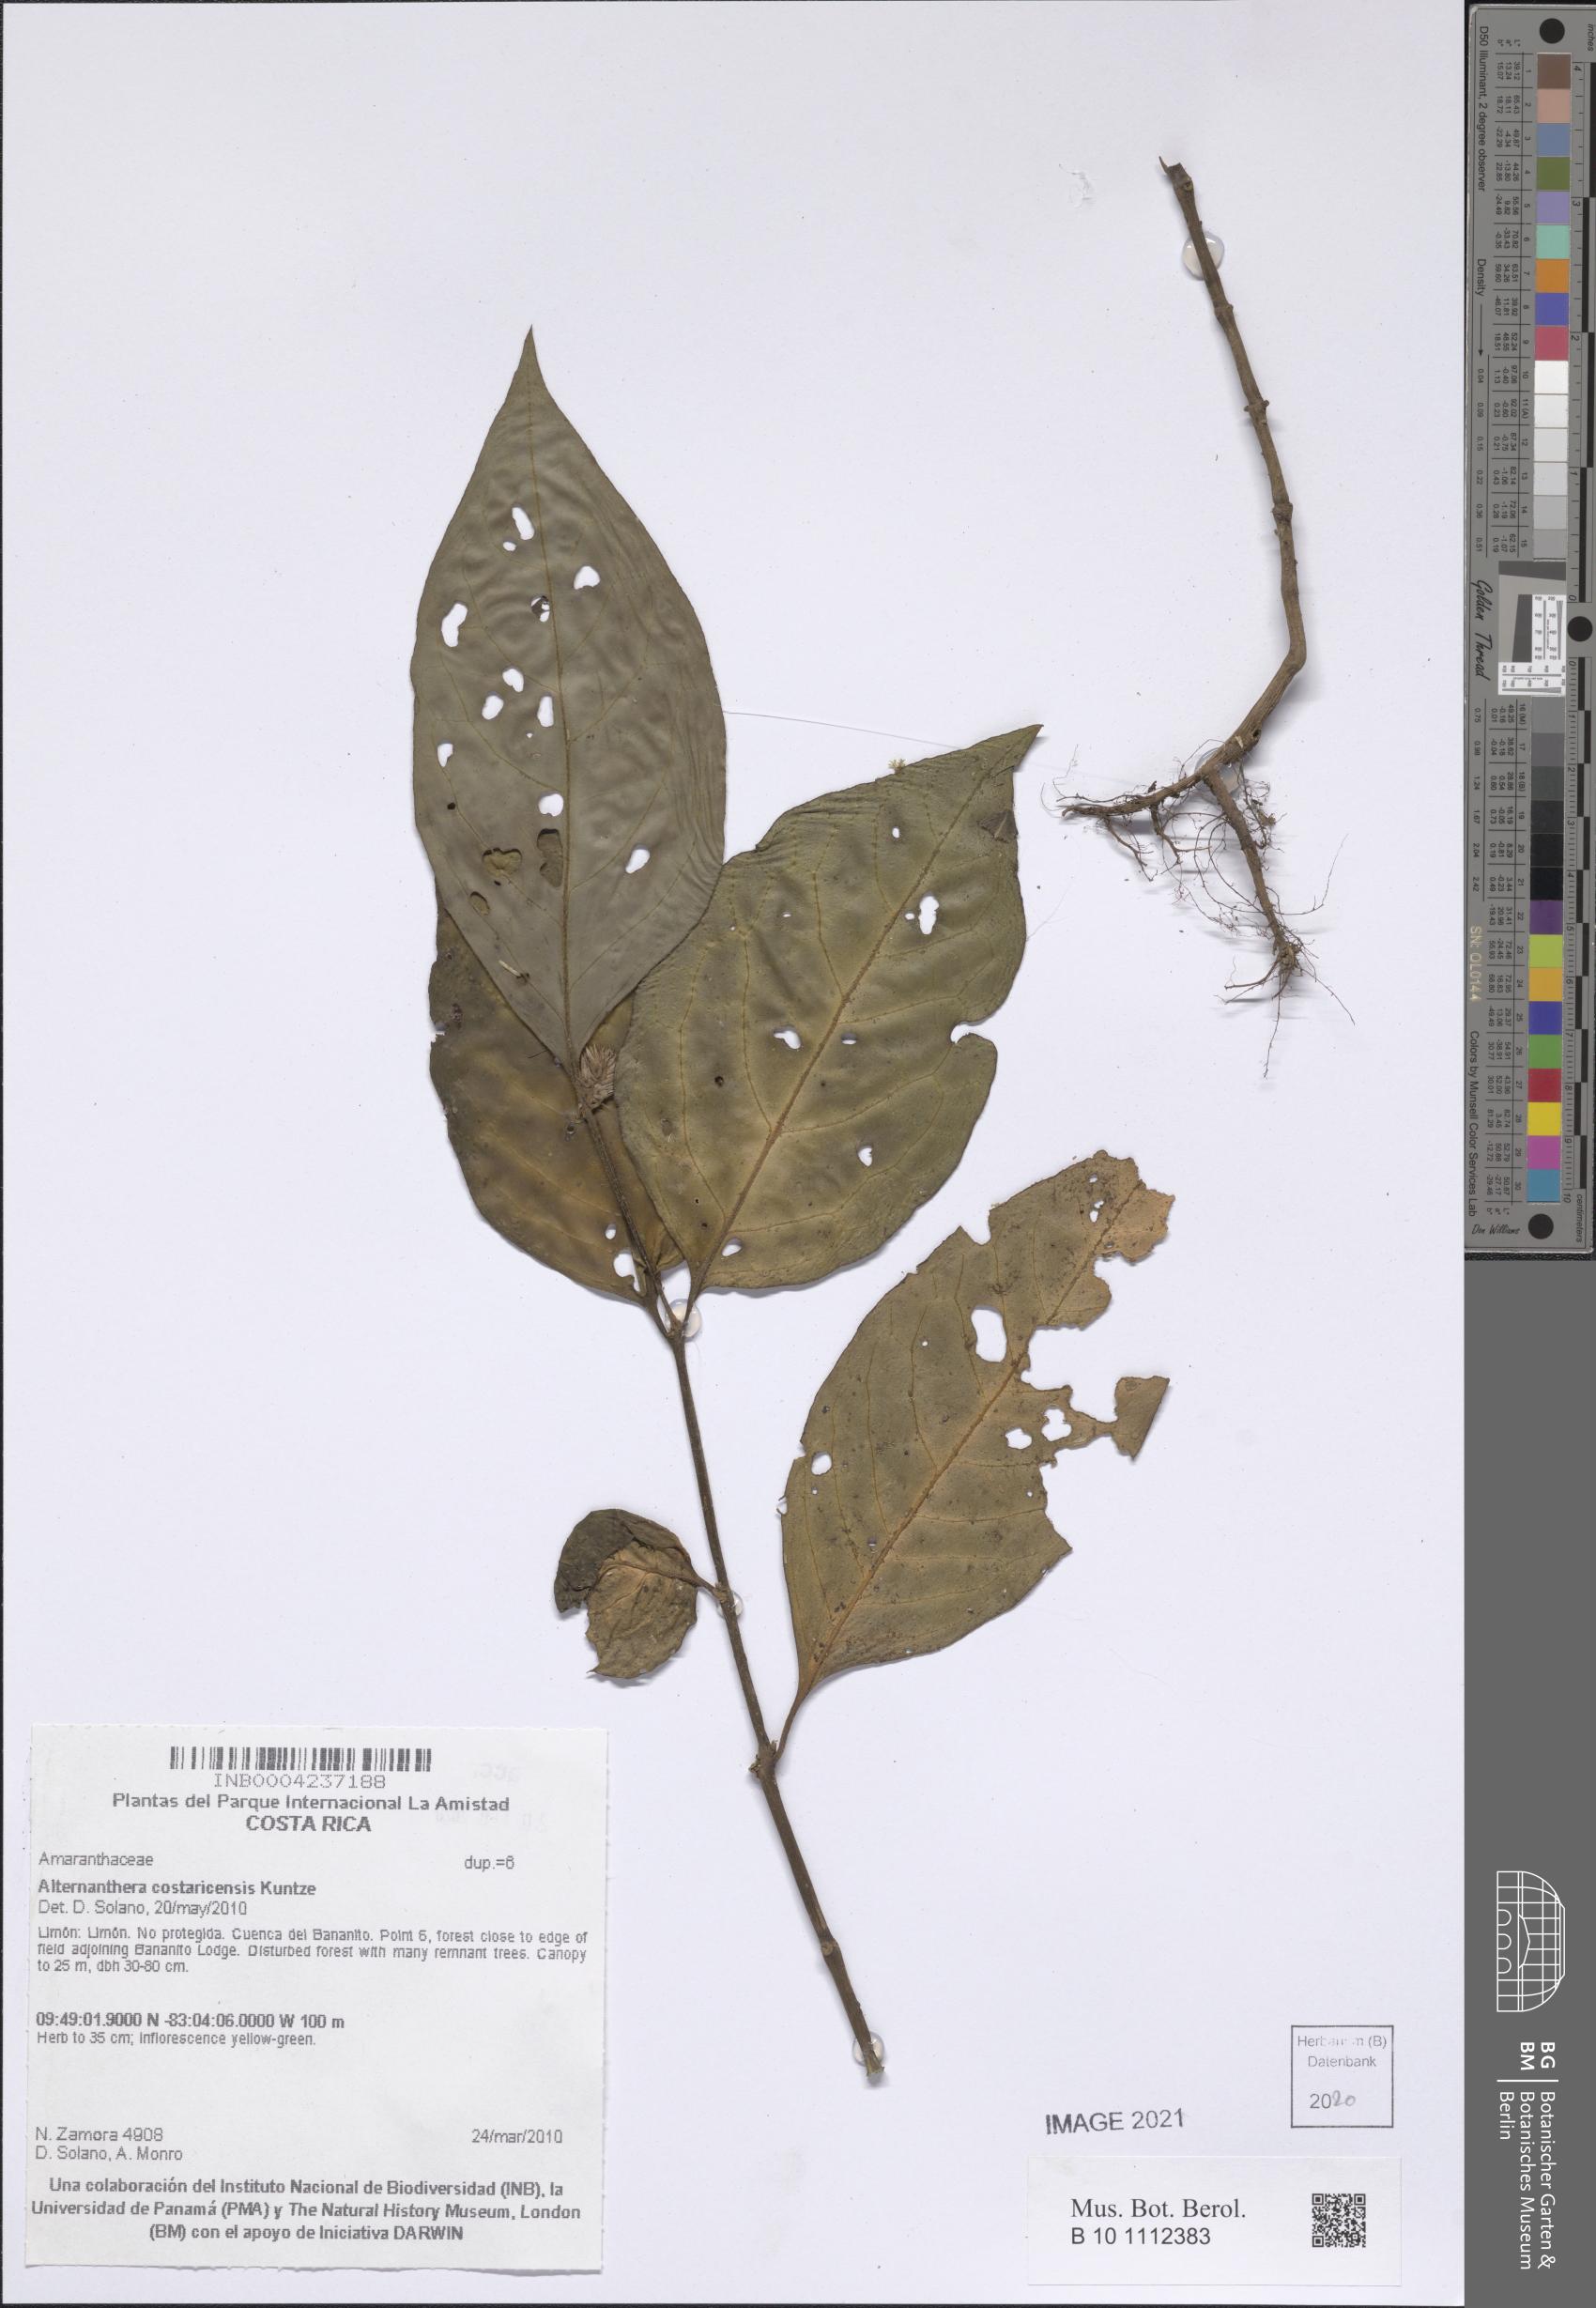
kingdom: Plantae
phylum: Tracheophyta
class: Magnoliopsida
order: Caryophyllales
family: Amaranthaceae
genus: Alternanthera
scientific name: Alternanthera costaricensis
